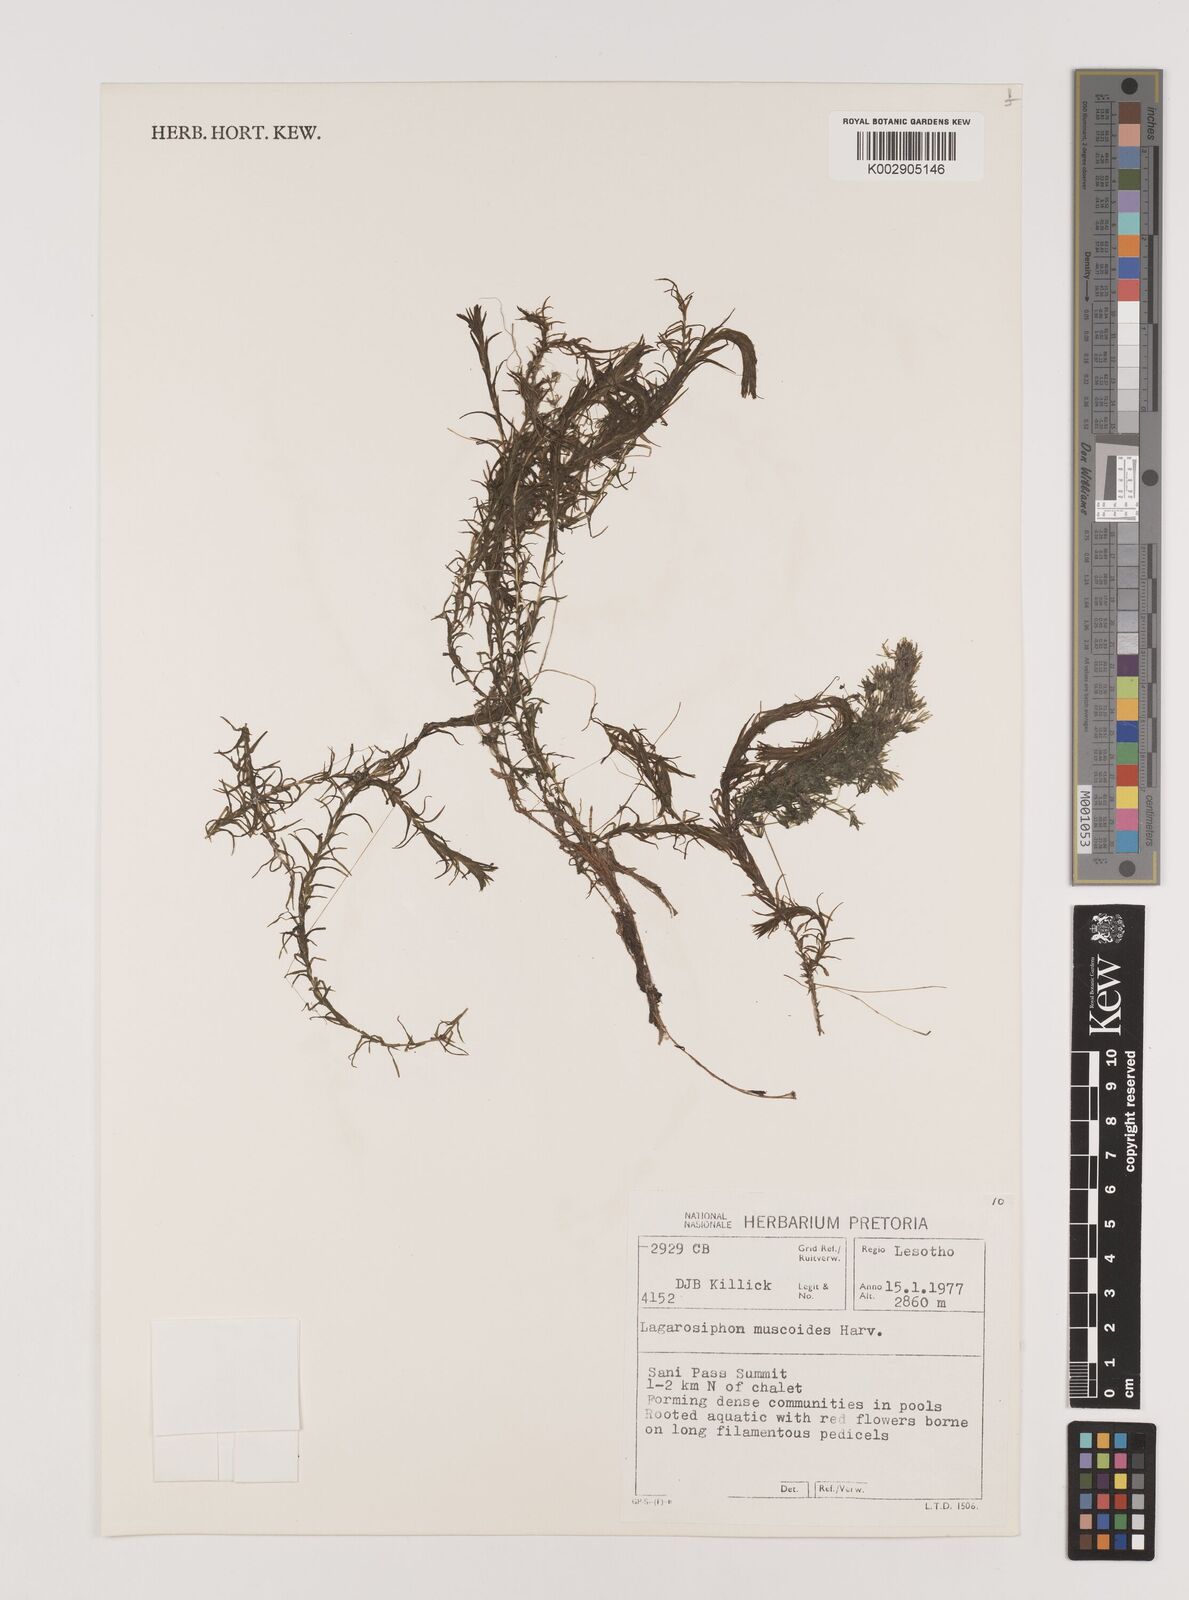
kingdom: Plantae
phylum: Tracheophyta
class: Liliopsida
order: Alismatales
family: Hydrocharitaceae
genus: Lagarosiphon
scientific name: Lagarosiphon muscoides
